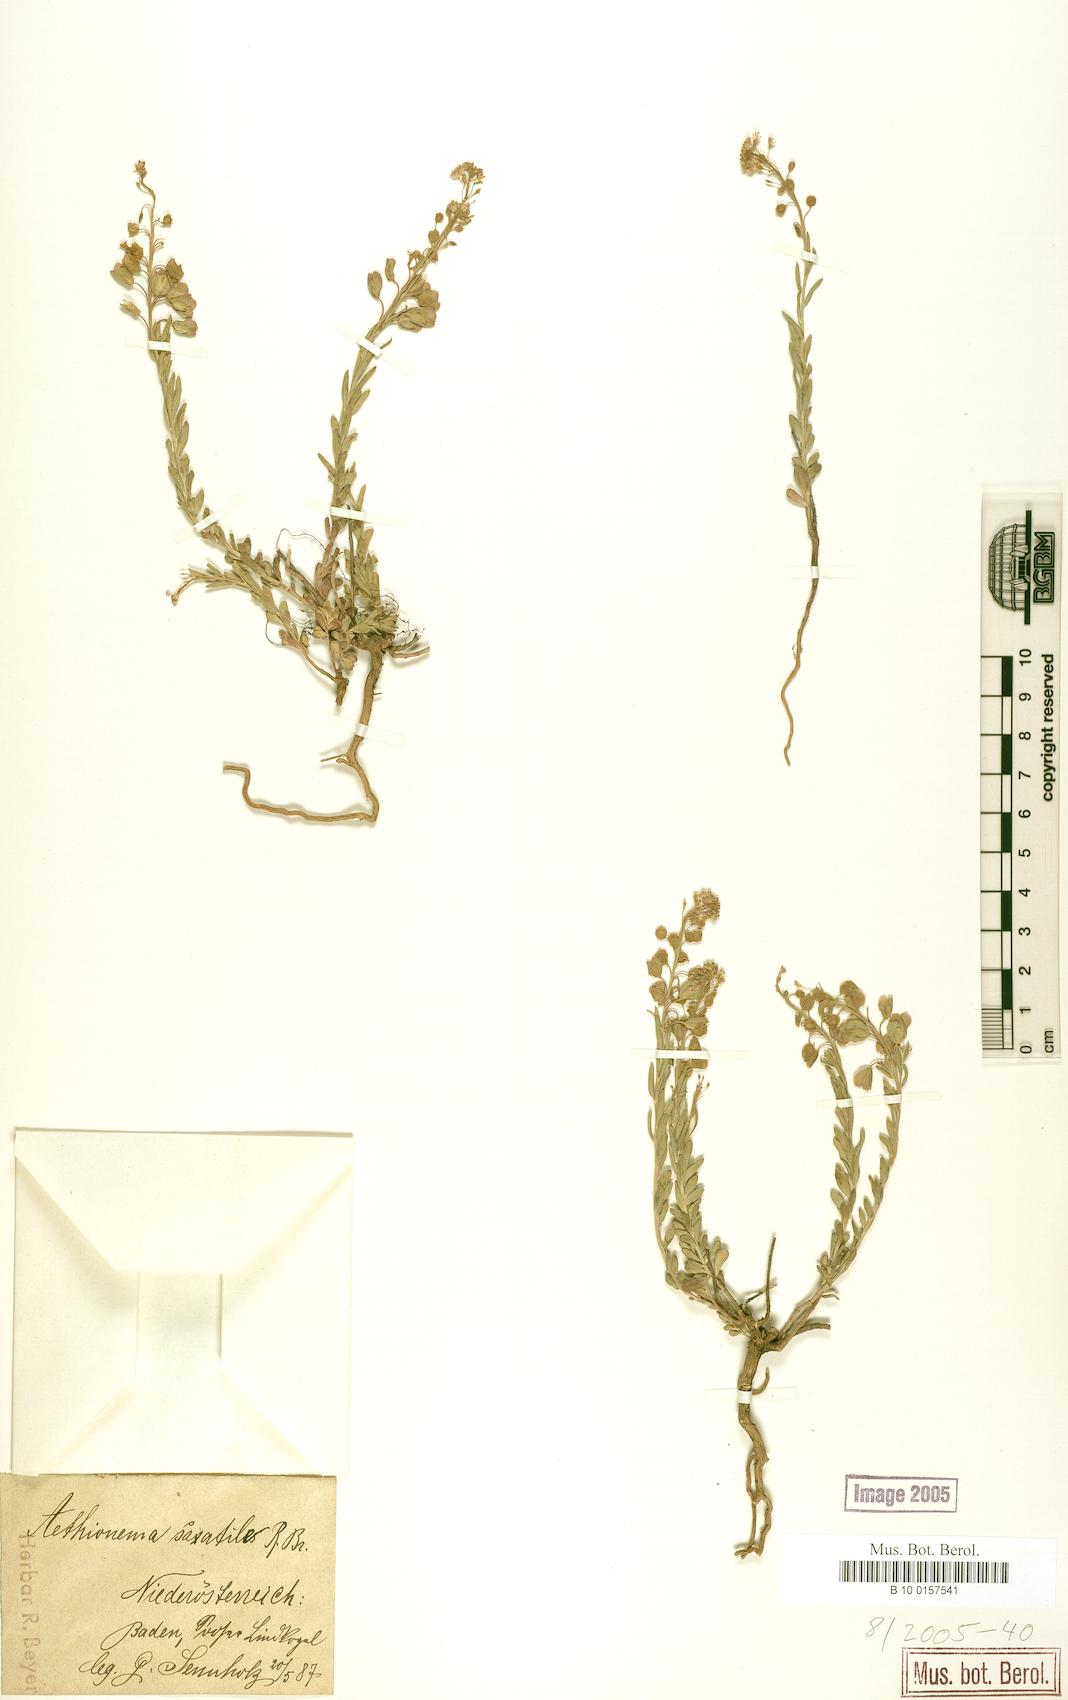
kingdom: Plantae
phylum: Tracheophyta
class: Magnoliopsida
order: Brassicales
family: Brassicaceae
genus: Aethionema
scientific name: Aethionema saxatile
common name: Burnt candytuft
